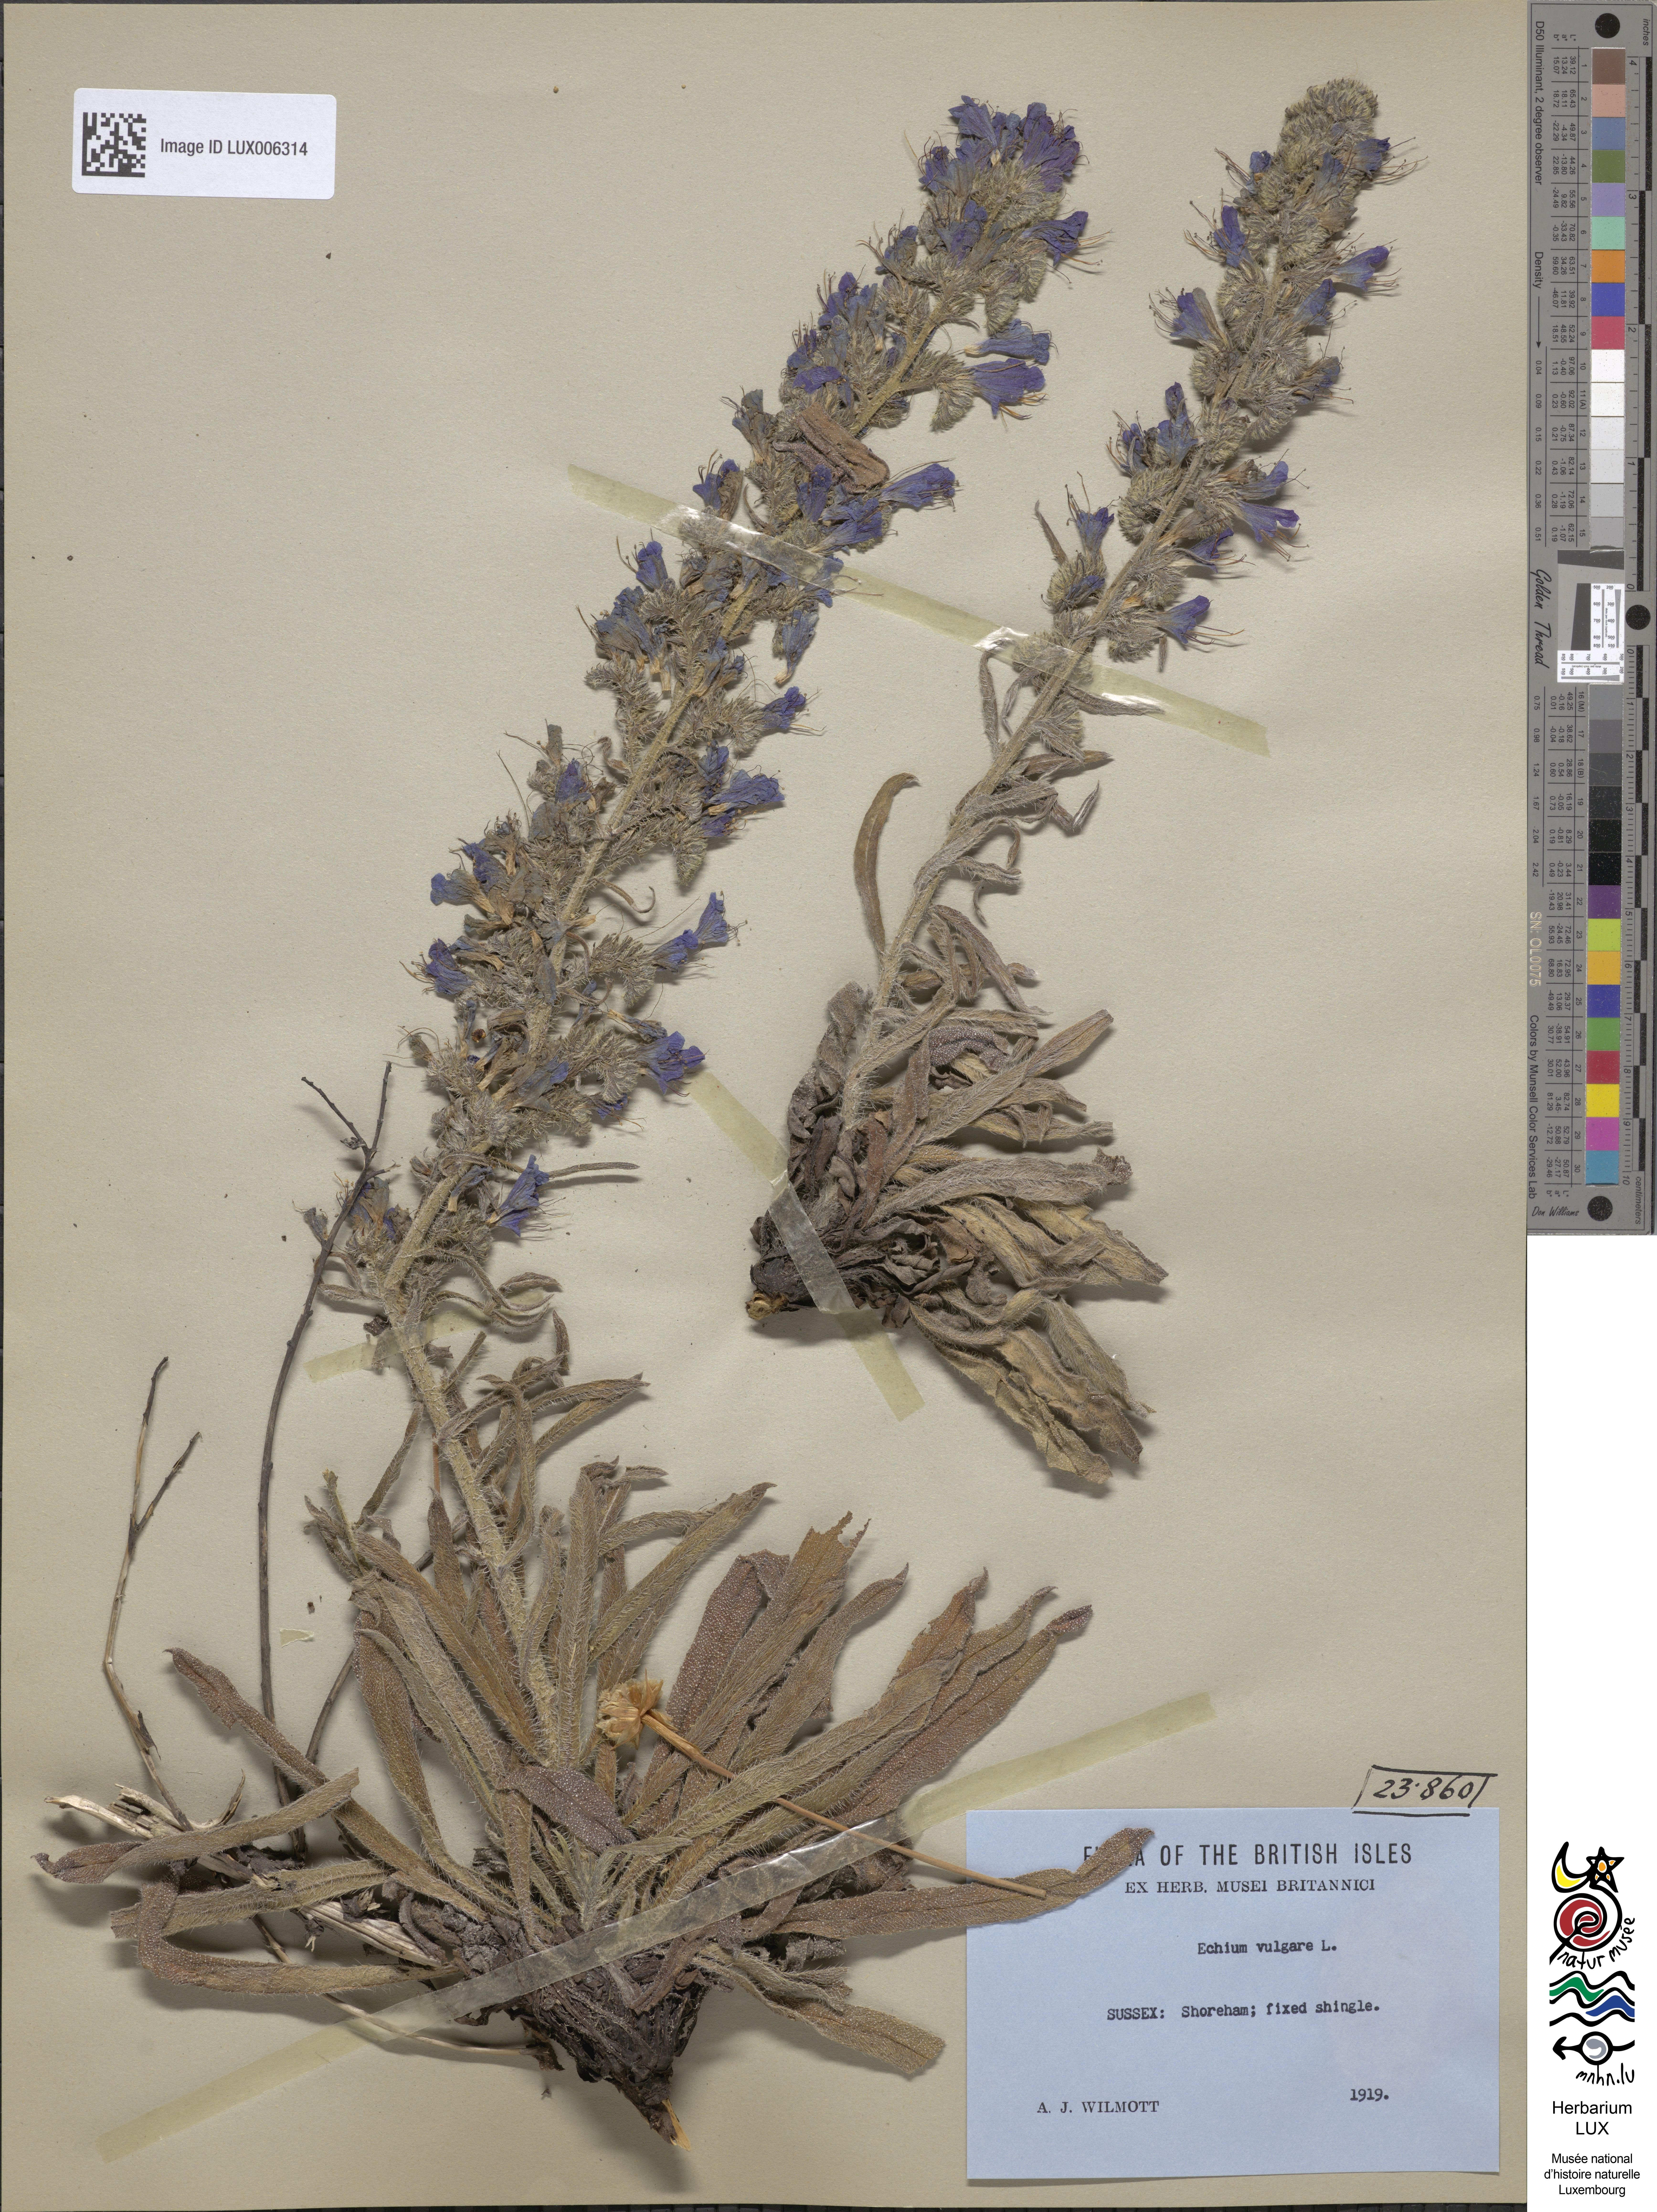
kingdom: Plantae
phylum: Tracheophyta
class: Magnoliopsida
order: Boraginales
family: Boraginaceae
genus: Echium
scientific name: Echium vulgare
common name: Common viper's bugloss
